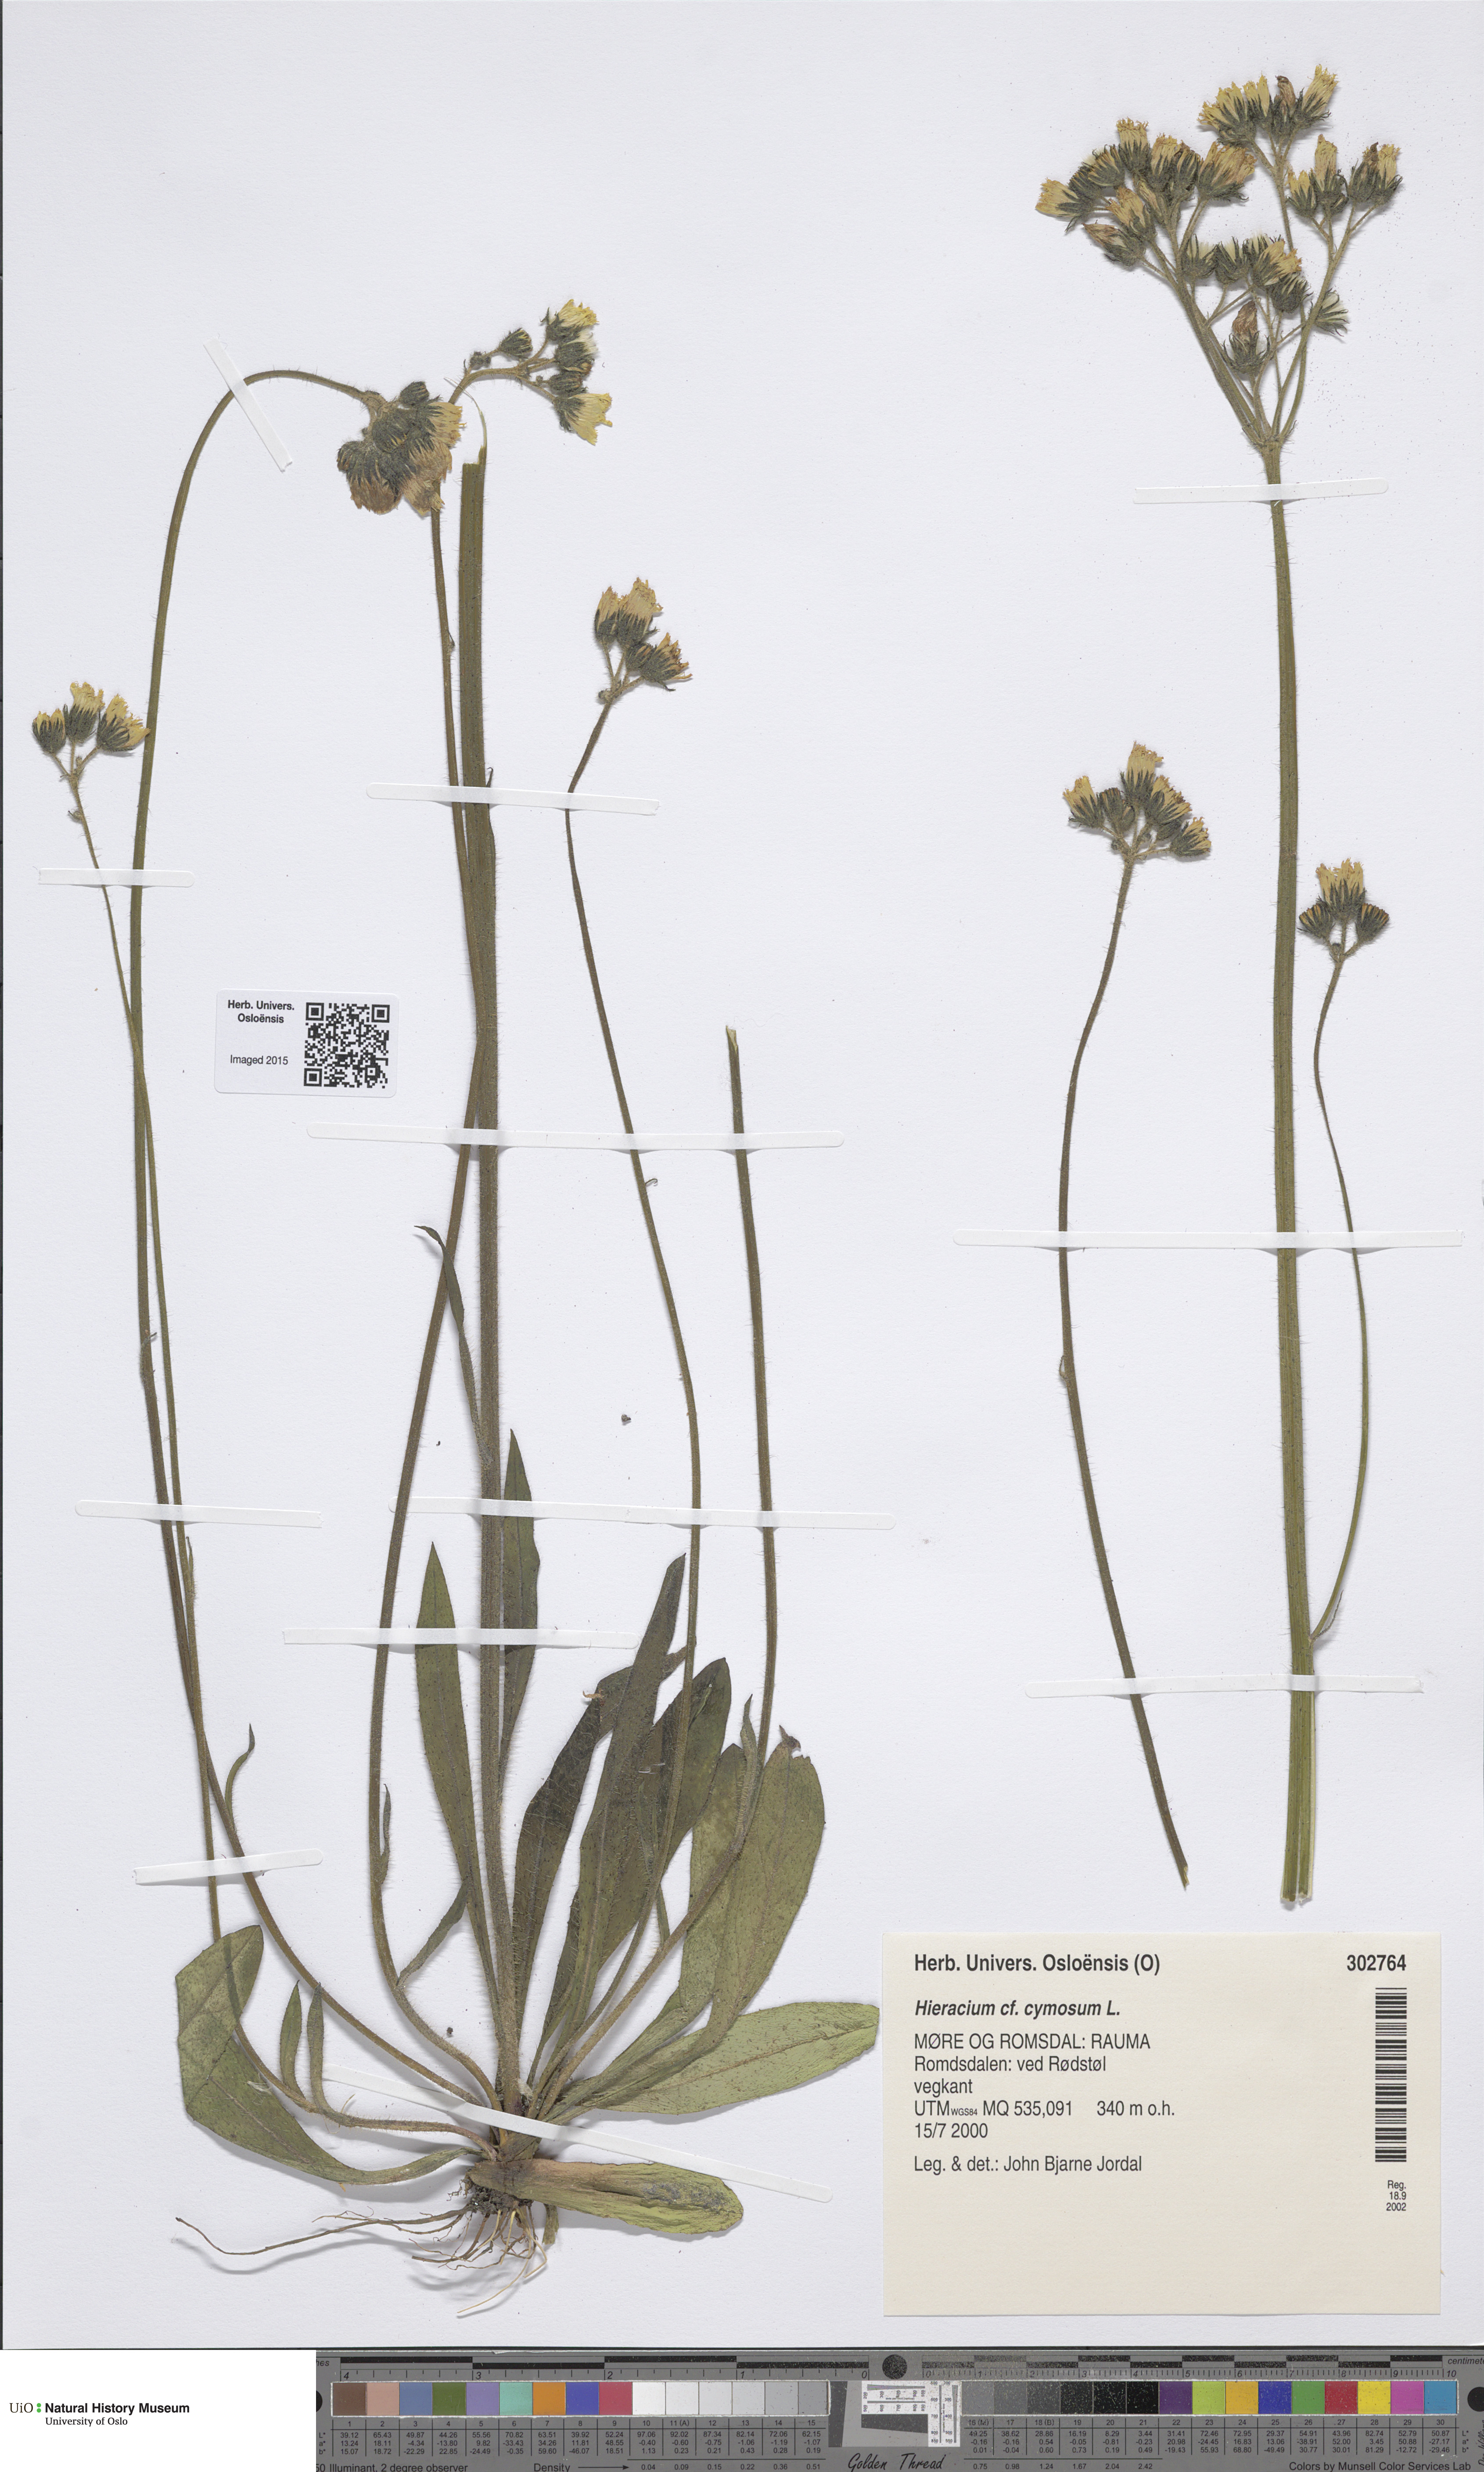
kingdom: Plantae
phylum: Tracheophyta
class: Magnoliopsida
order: Asterales
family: Asteraceae
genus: Pilosella
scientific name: Pilosella cymosa
